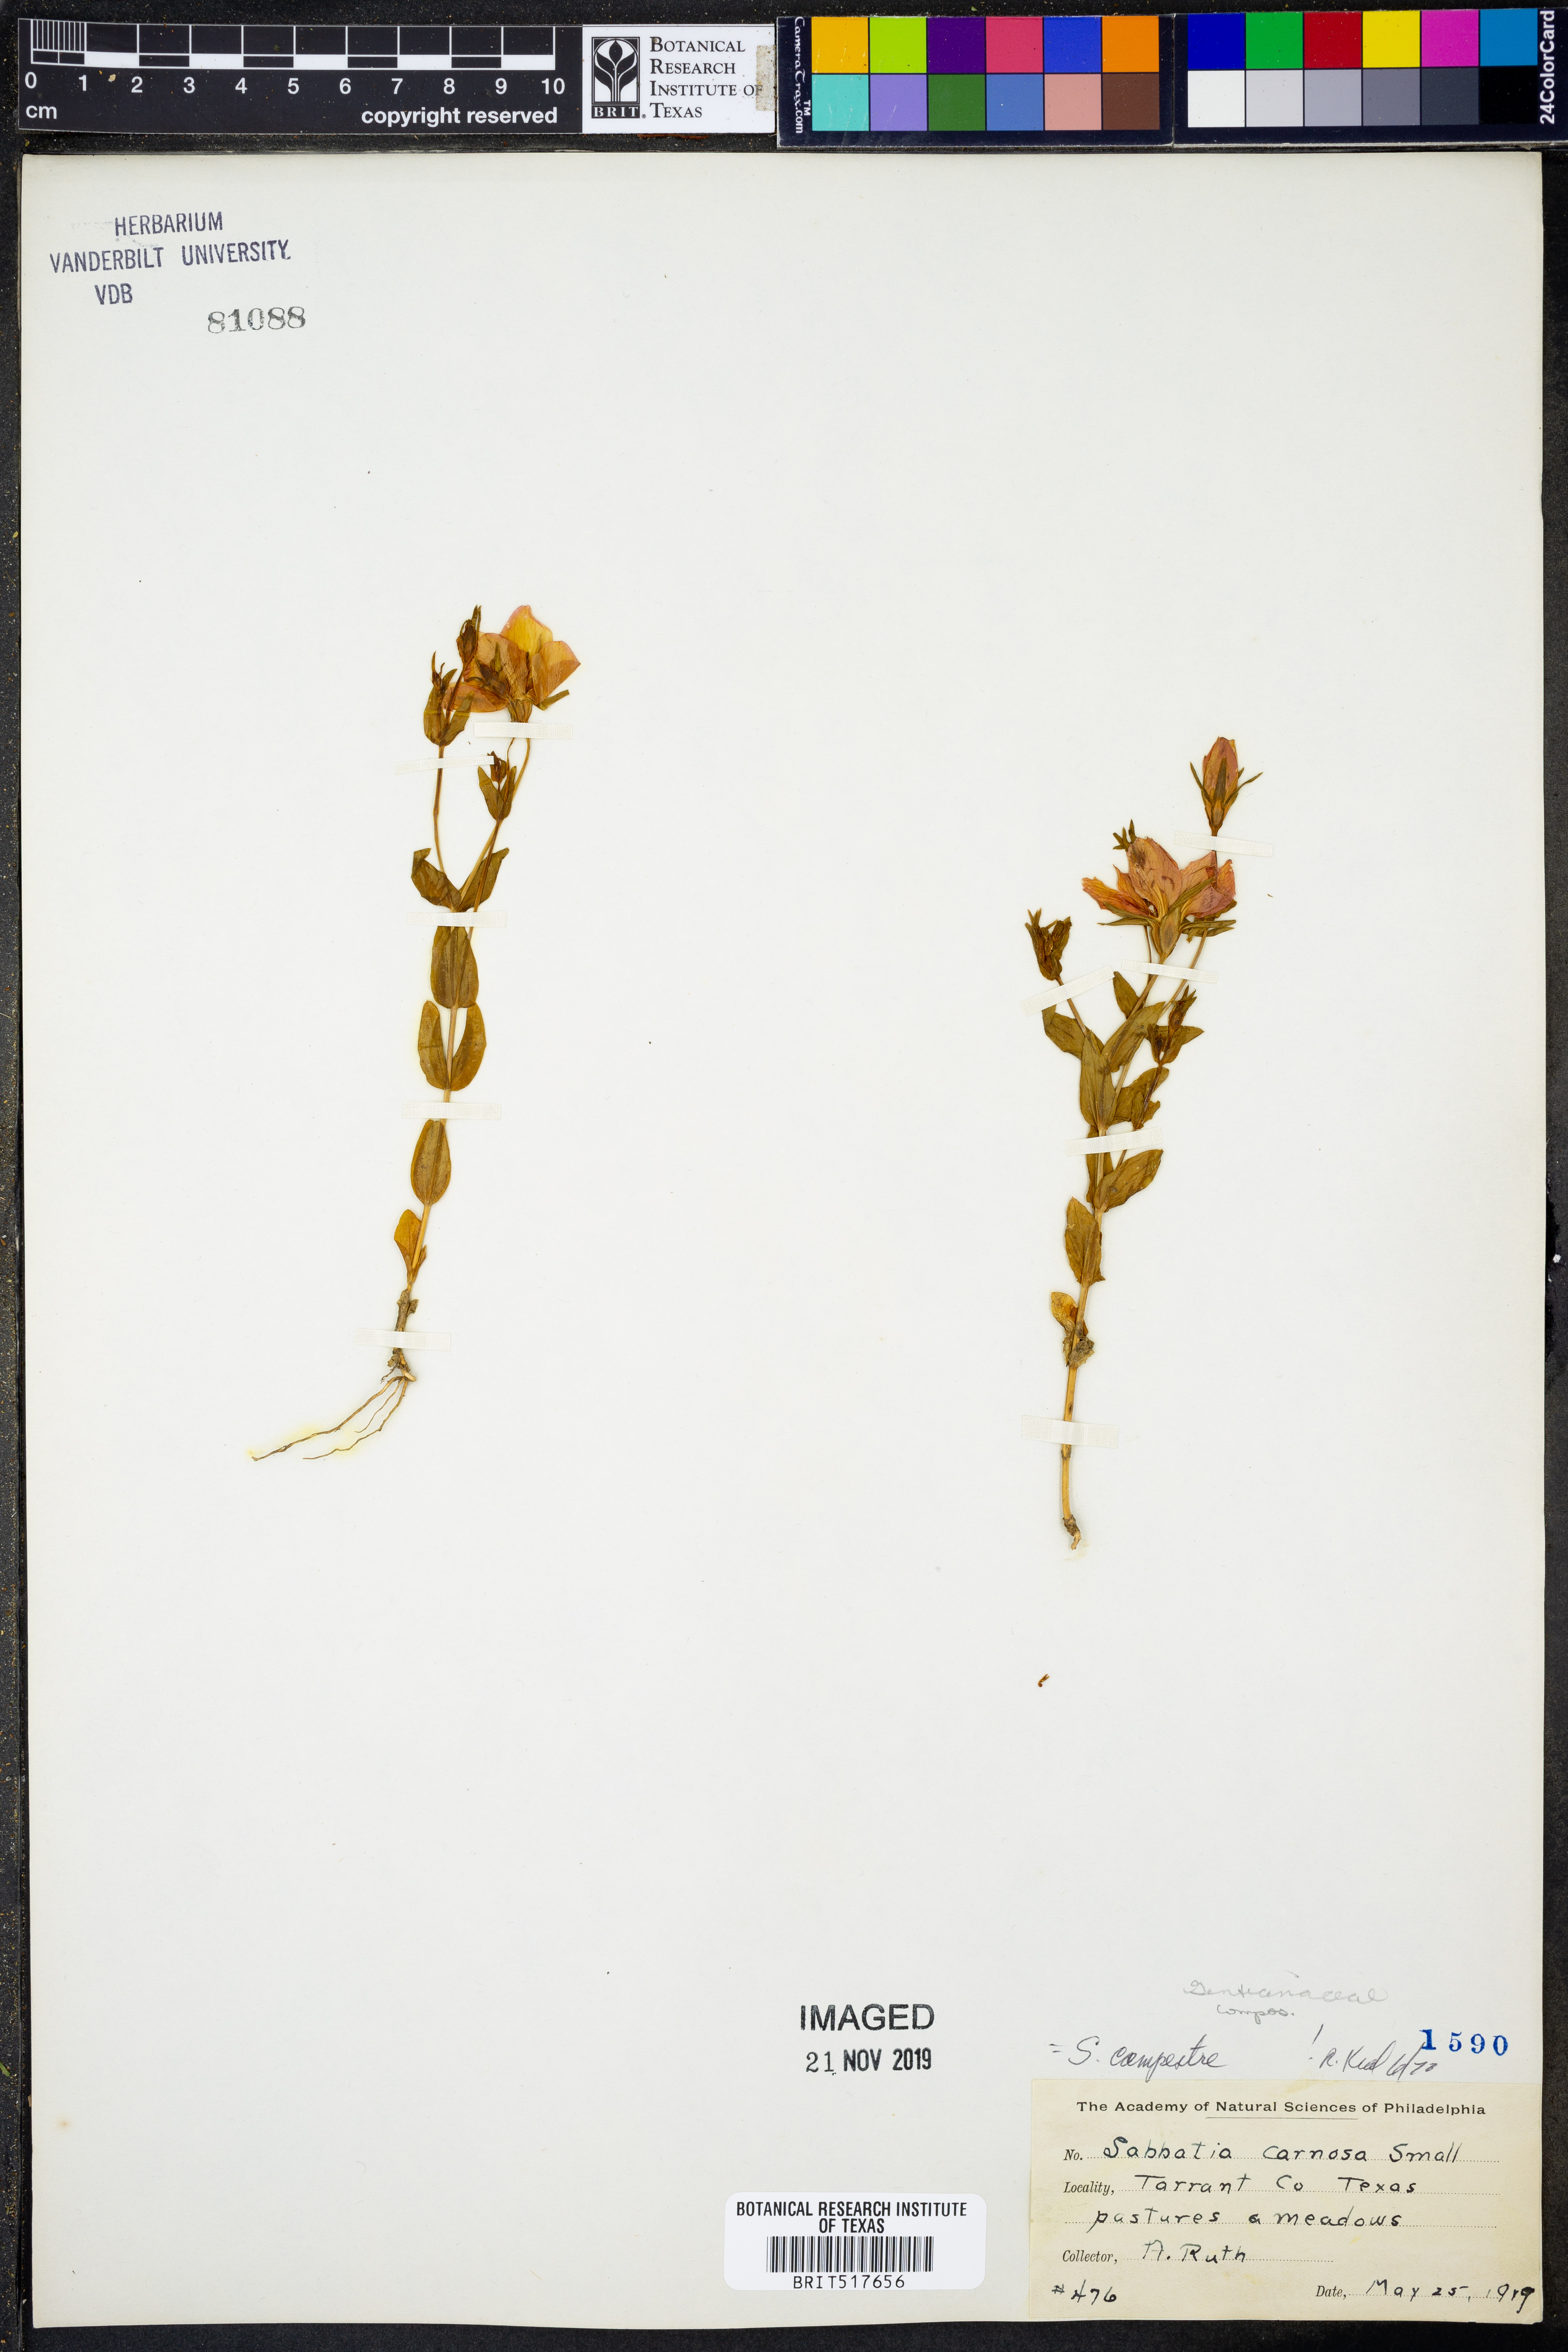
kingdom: Plantae
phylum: Tracheophyta
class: Magnoliopsida
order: Gentianales
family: Gentianaceae
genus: Sabatia
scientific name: Sabatia campestris
